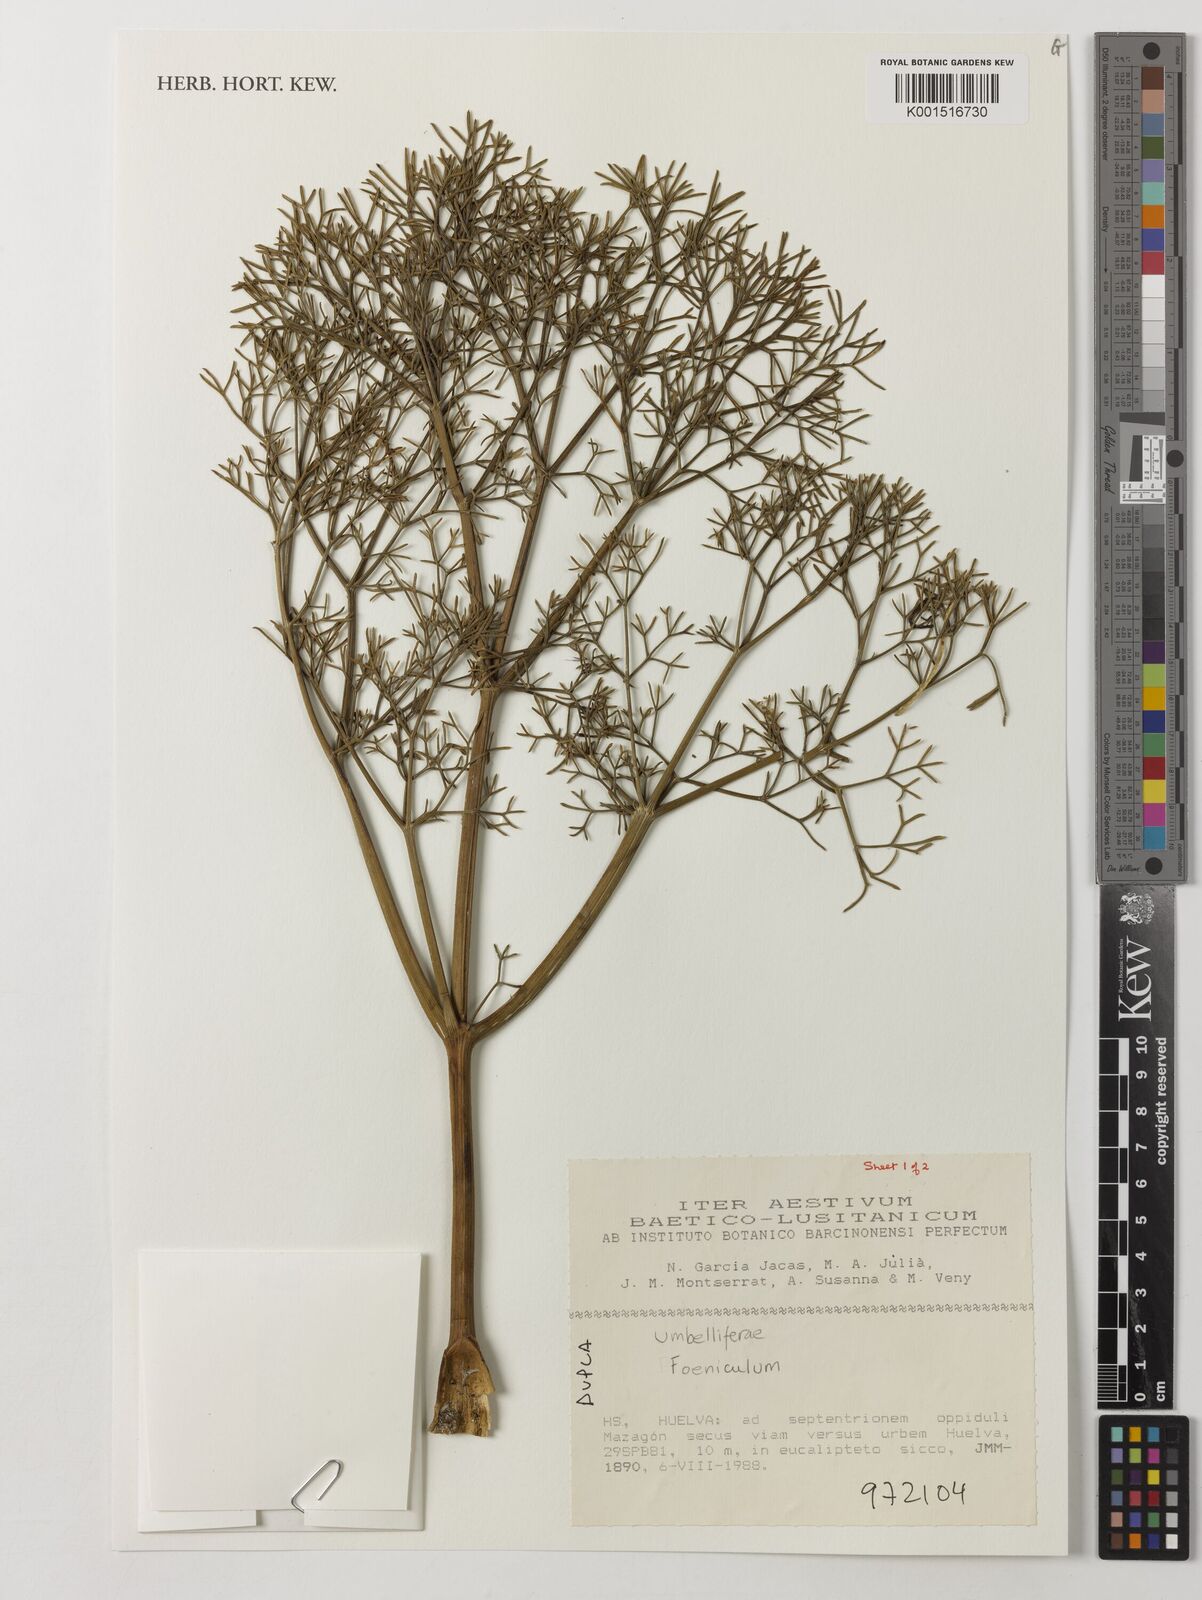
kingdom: Plantae
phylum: Tracheophyta
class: Magnoliopsida
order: Apiales
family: Apiaceae
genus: Foeniculum
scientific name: Foeniculum
